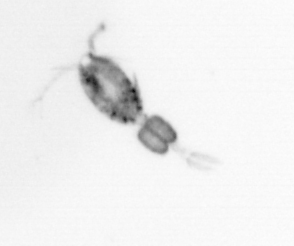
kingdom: Animalia
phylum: Arthropoda
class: Copepoda
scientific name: Copepoda
